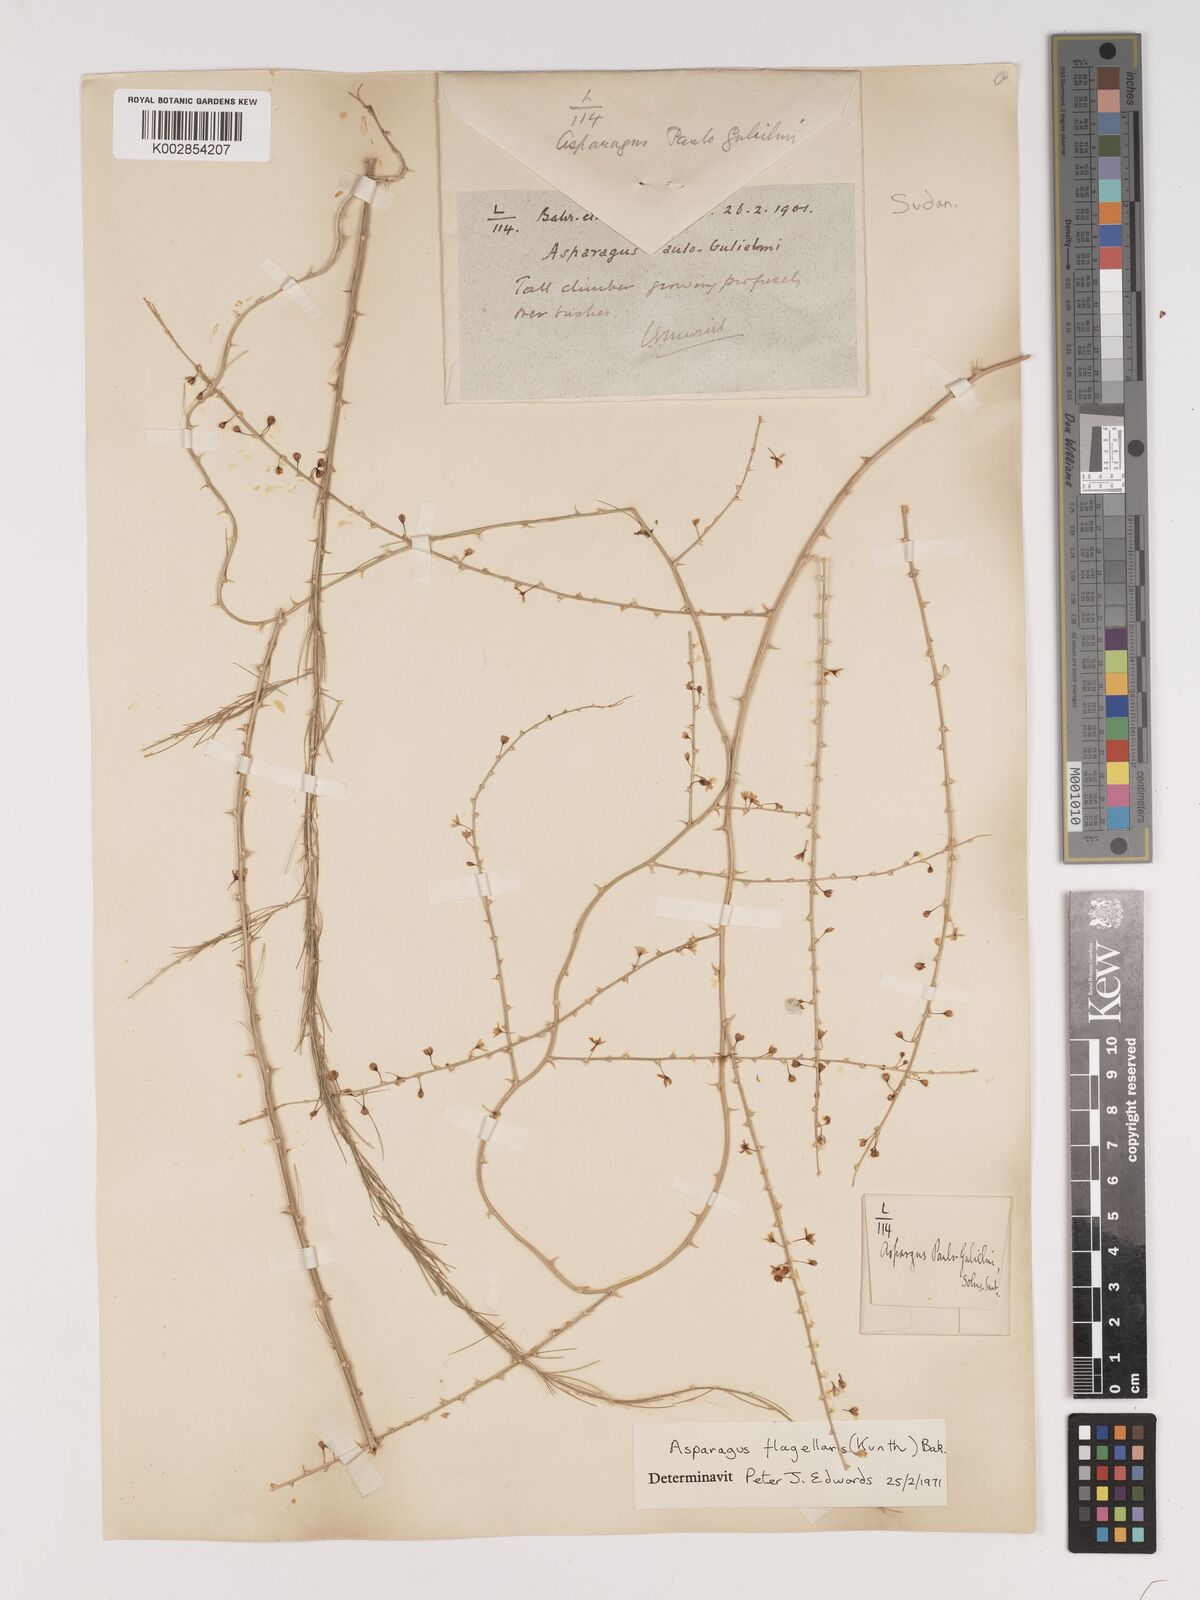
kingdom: Plantae
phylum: Tracheophyta
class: Liliopsida
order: Asparagales
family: Asparagaceae
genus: Asparagus
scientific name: Asparagus flagellaris
